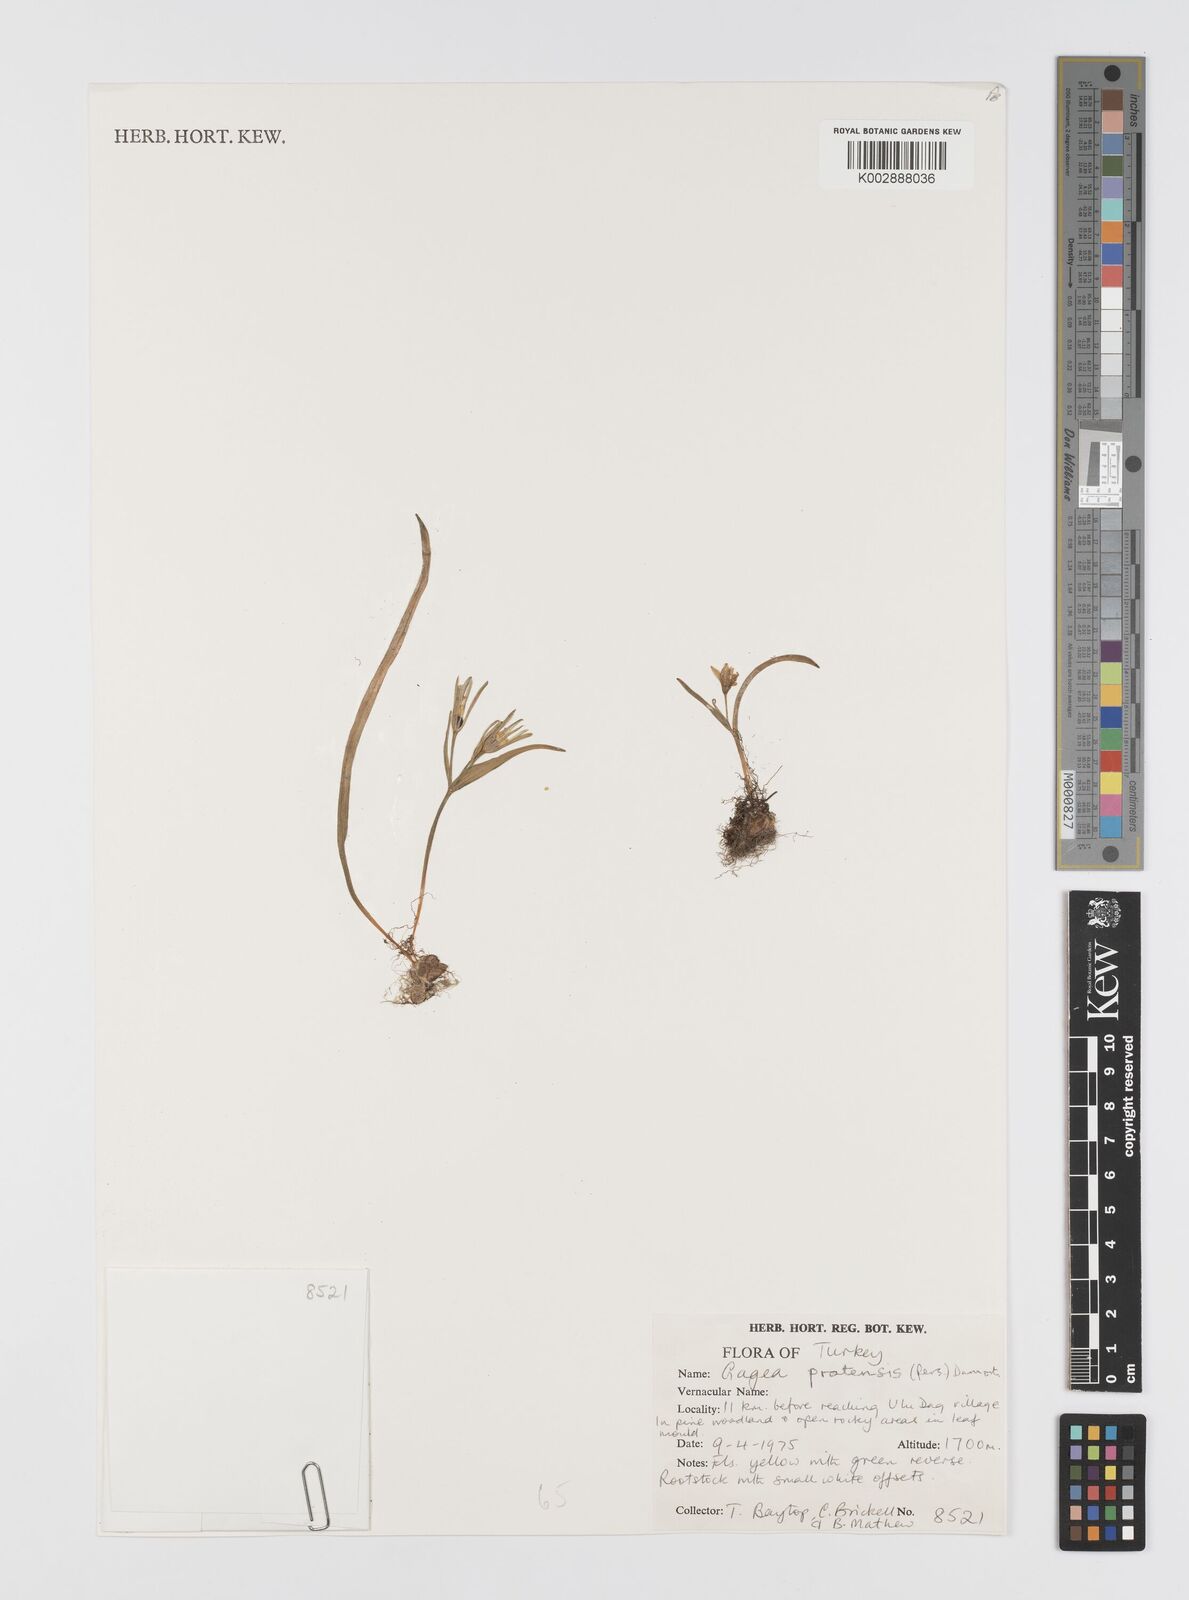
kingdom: Plantae
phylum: Tracheophyta
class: Liliopsida
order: Liliales
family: Liliaceae
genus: Gagea
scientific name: Gagea pratensis
